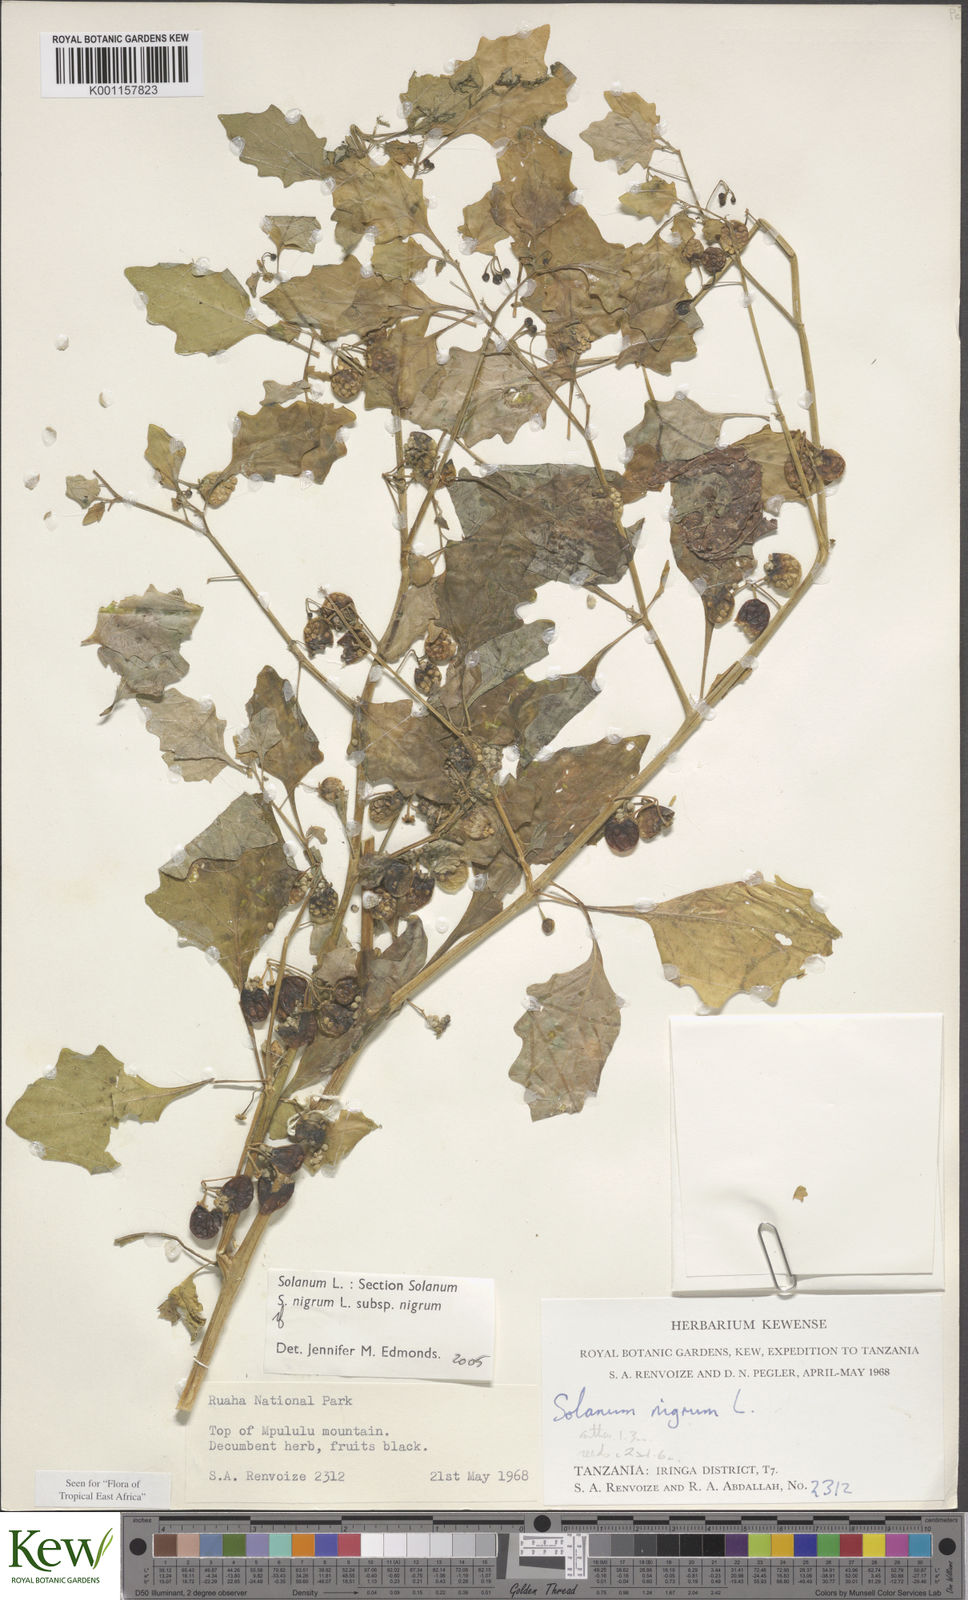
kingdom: Plantae
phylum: Tracheophyta
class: Magnoliopsida
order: Solanales
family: Solanaceae
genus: Solanum
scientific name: Solanum nigrum
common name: Black nightshade
